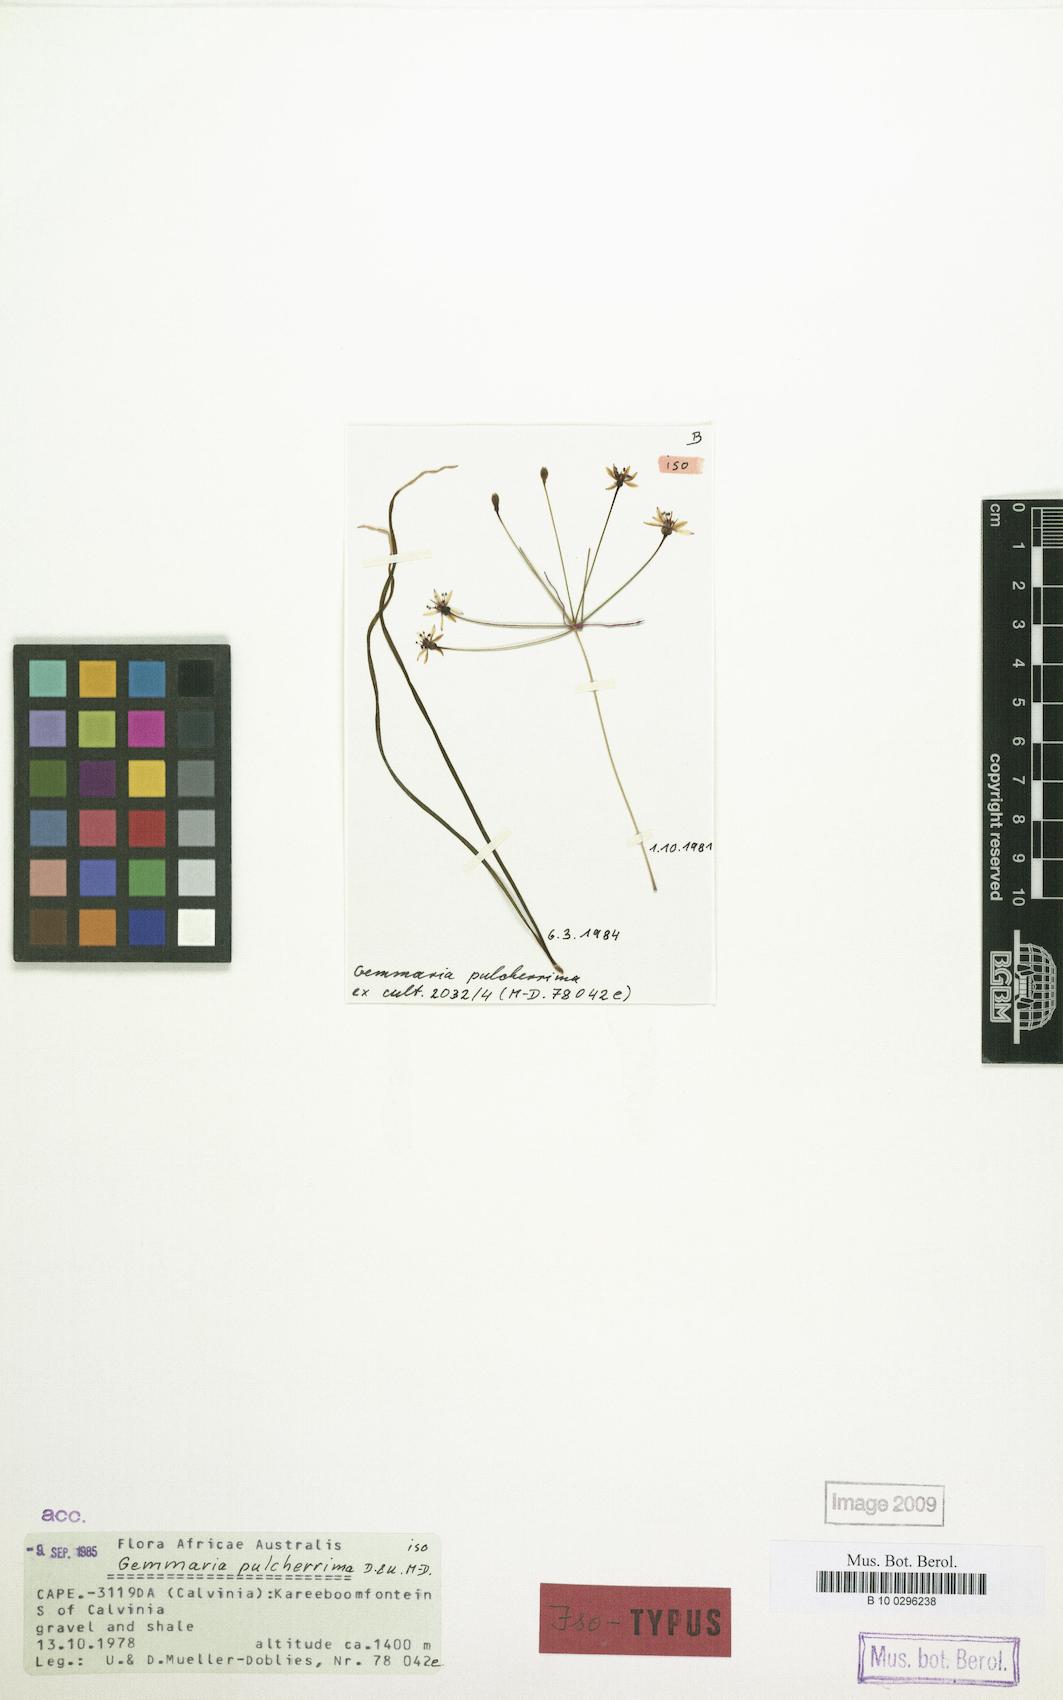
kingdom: Plantae
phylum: Tracheophyta
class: Liliopsida
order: Asparagales
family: Amaryllidaceae
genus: Hessea
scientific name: Hessea pulcherrima
